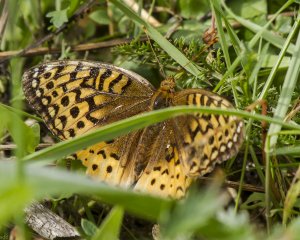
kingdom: Animalia
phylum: Arthropoda
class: Insecta
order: Lepidoptera
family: Nymphalidae
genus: Speyeria
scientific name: Speyeria cybele
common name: Great Spangled Fritillary
